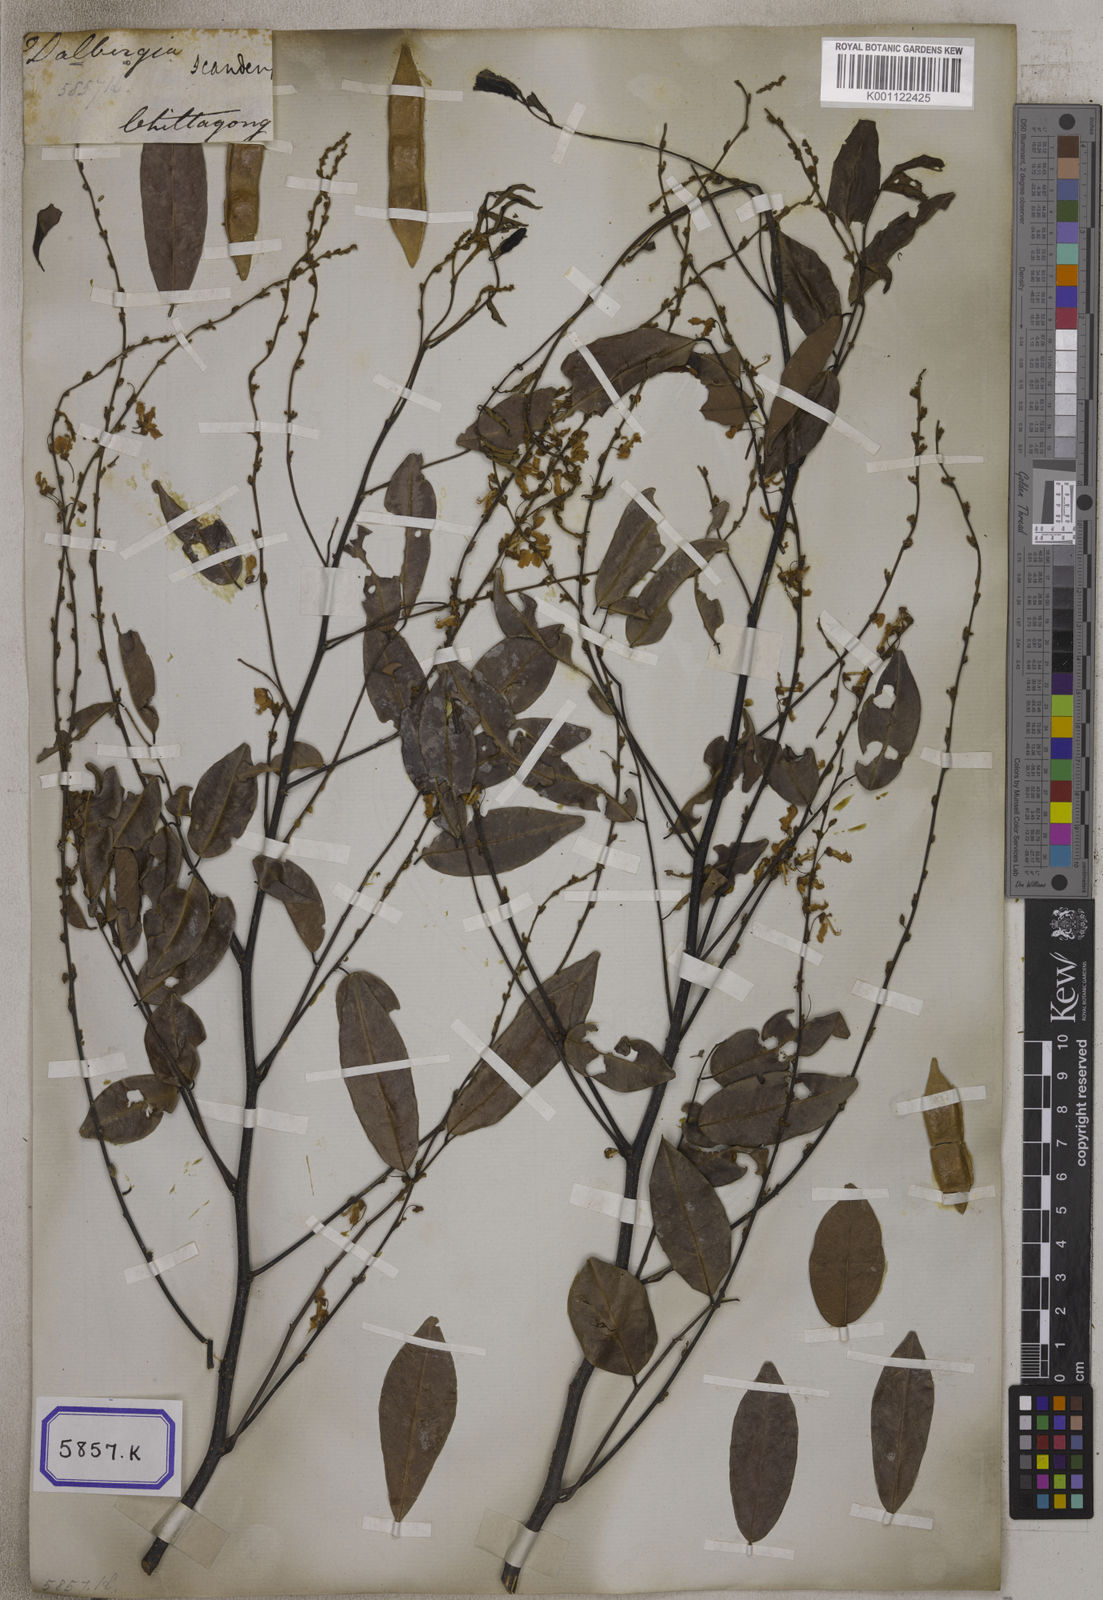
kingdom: Plantae
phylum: Tracheophyta
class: Magnoliopsida
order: Fabales
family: Fabaceae
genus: Brachypterum
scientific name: Brachypterum scandens
